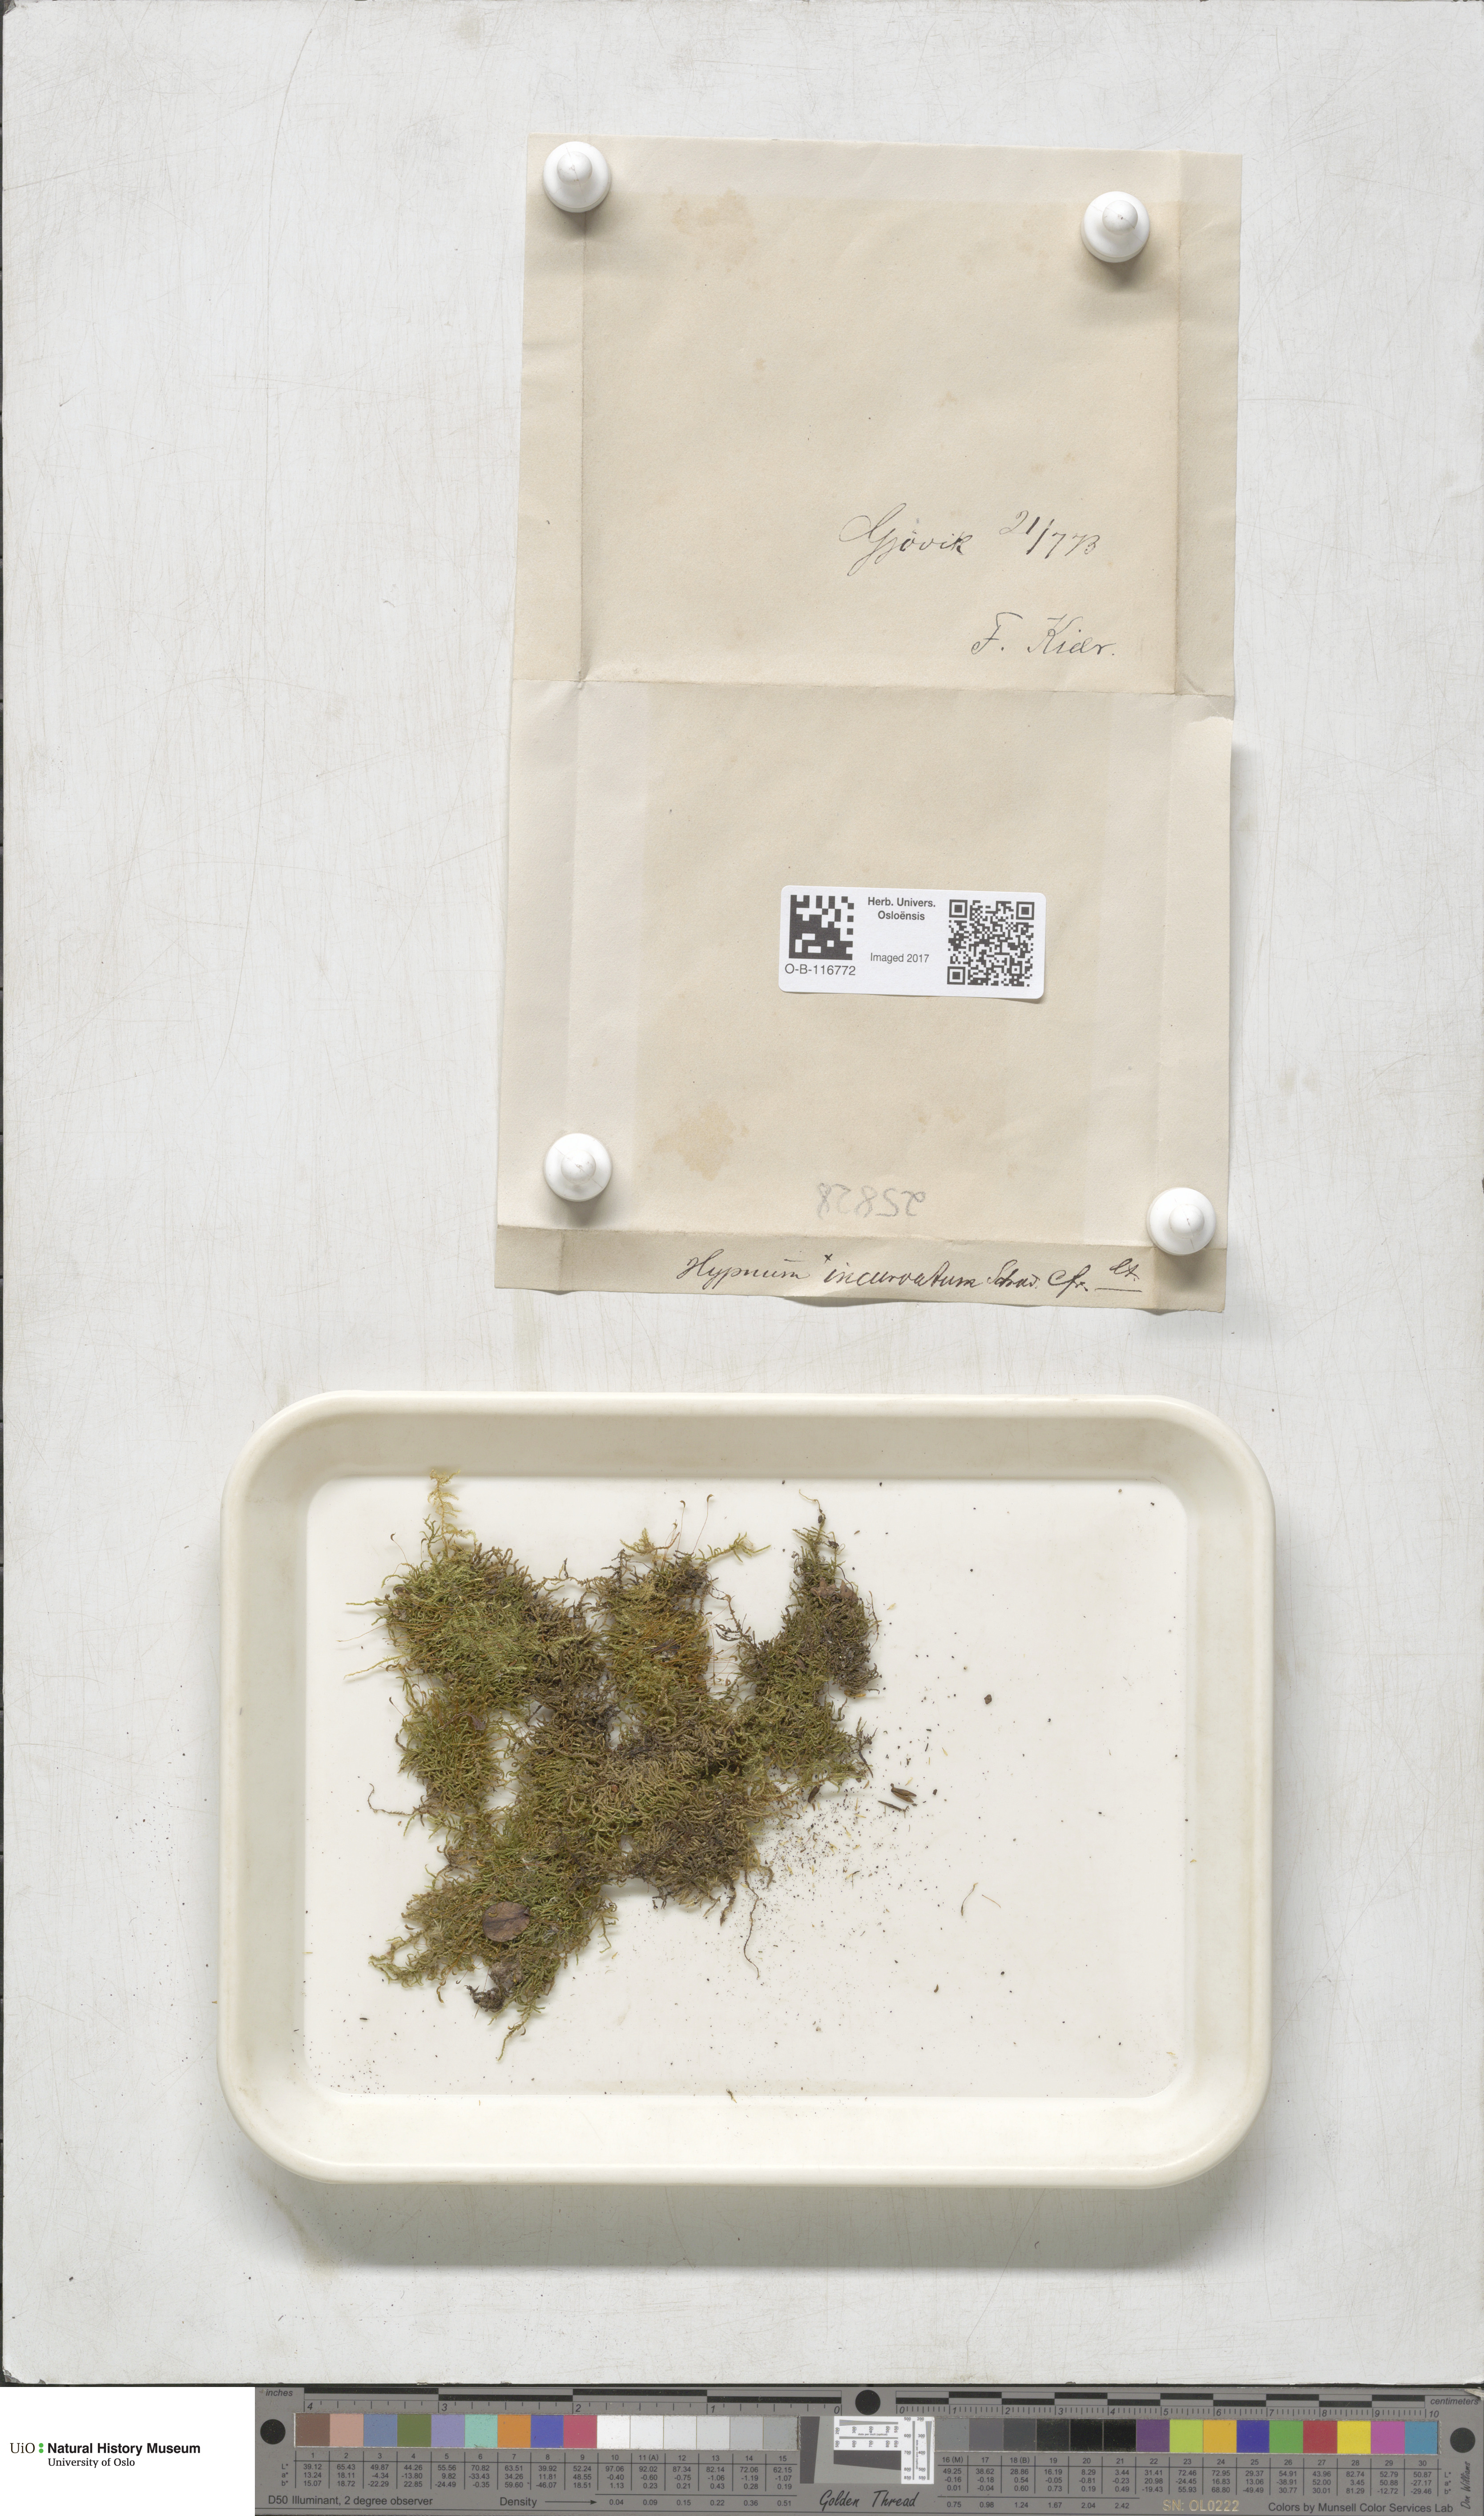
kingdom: Plantae
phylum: Bryophyta
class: Bryopsida
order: Hypnales
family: Pylaisiaceae
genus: Homomallium
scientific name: Homomallium incurvatum
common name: Incurved feather-moss
